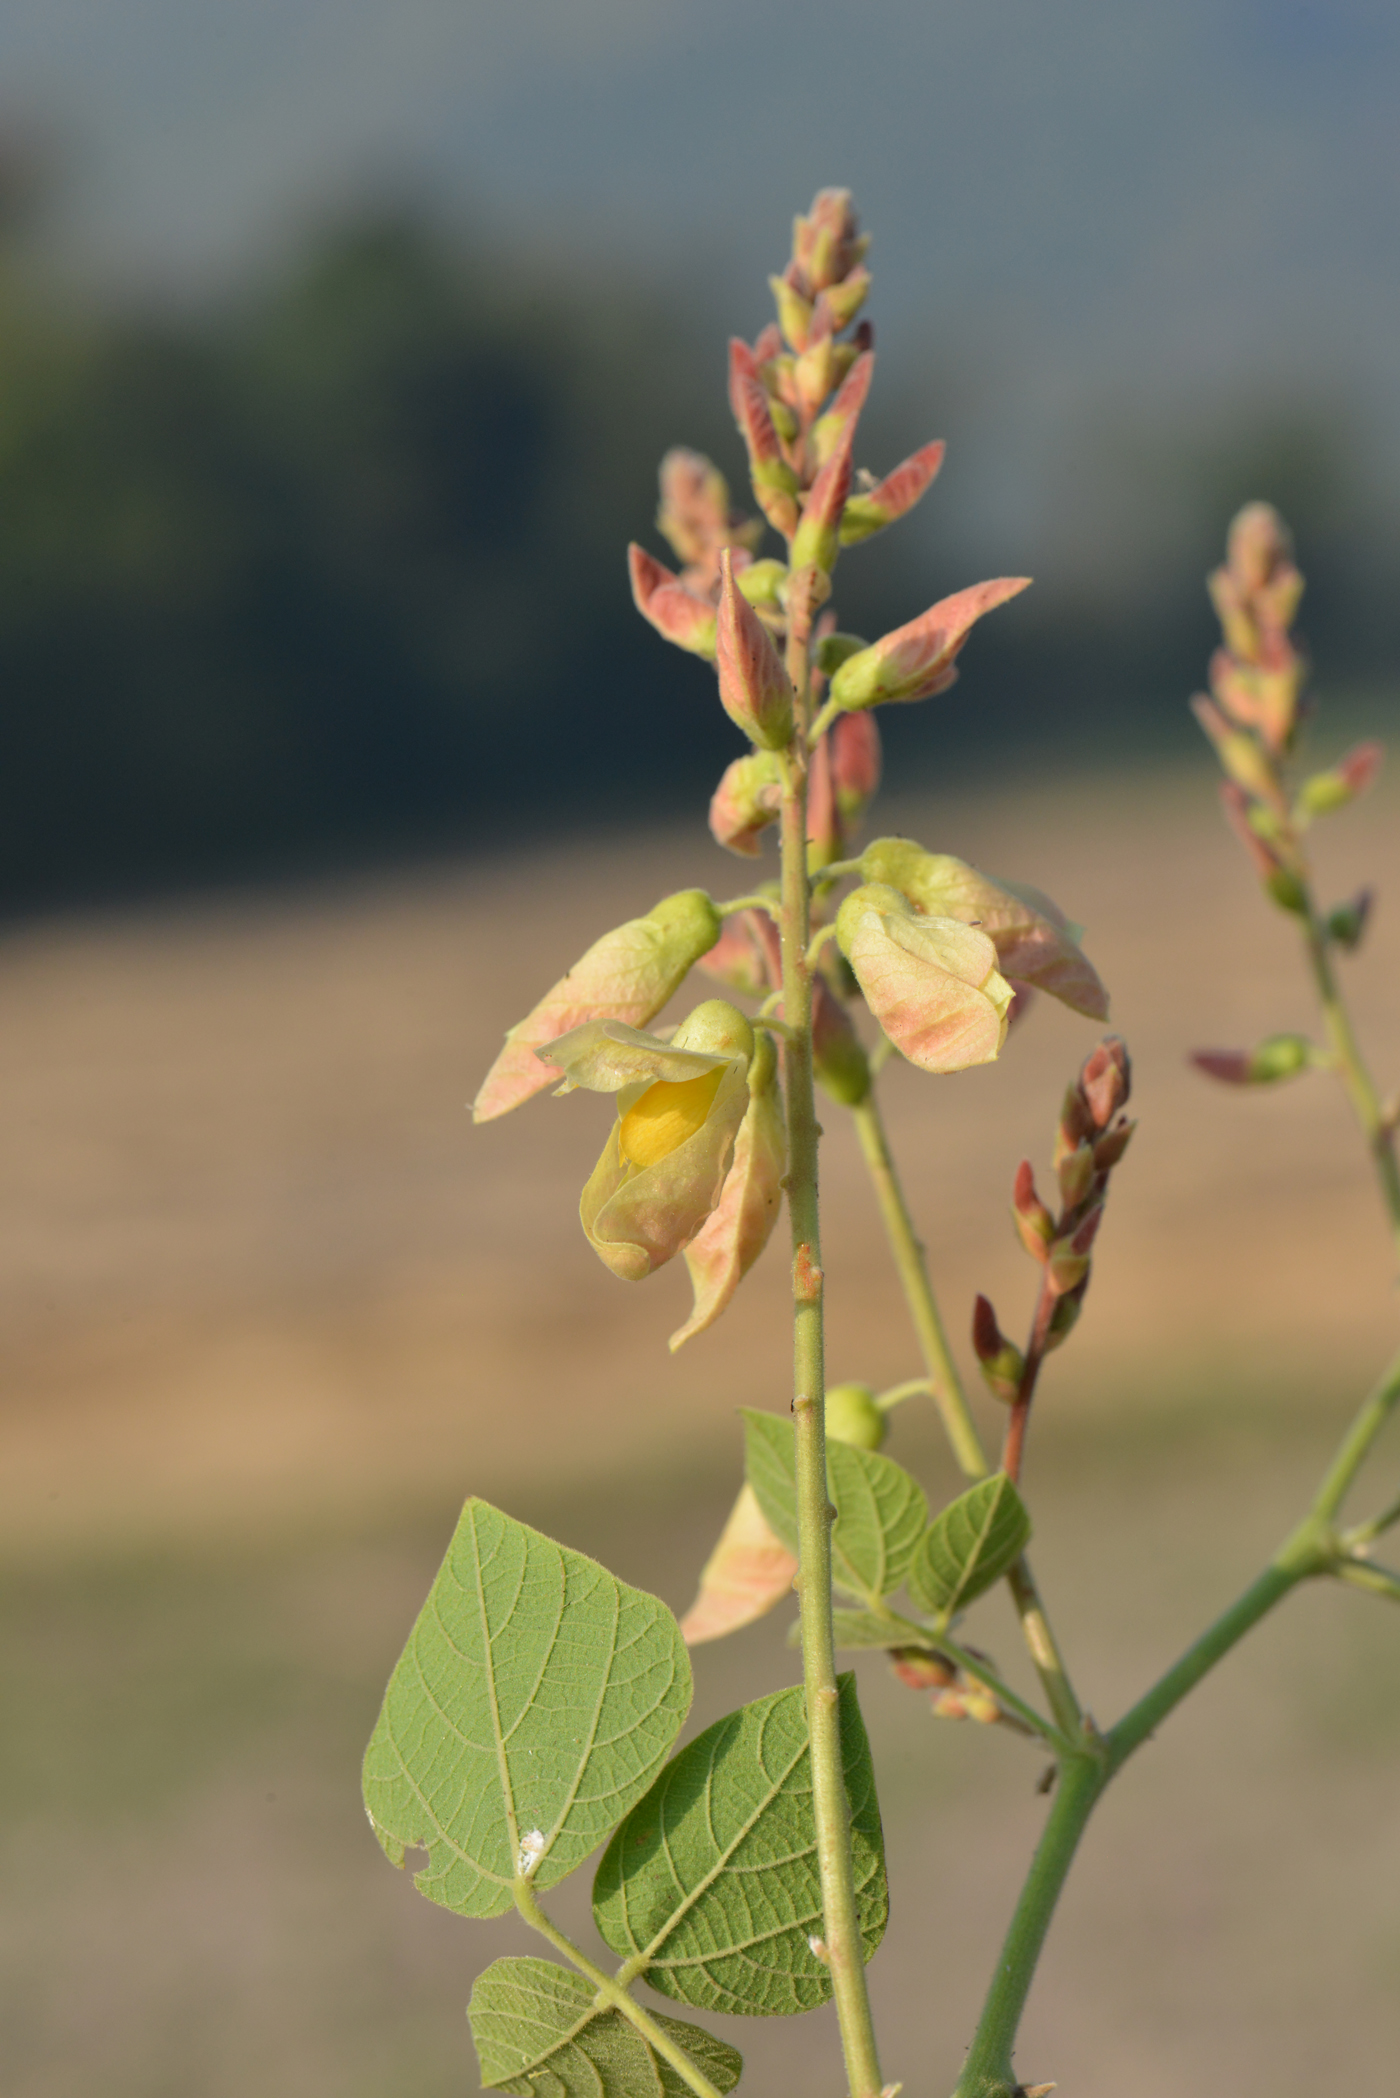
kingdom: Plantae
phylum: Tracheophyta
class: Magnoliopsida
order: Fabales
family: Fabaceae
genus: Paracalyx
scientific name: Paracalyx scariosus
